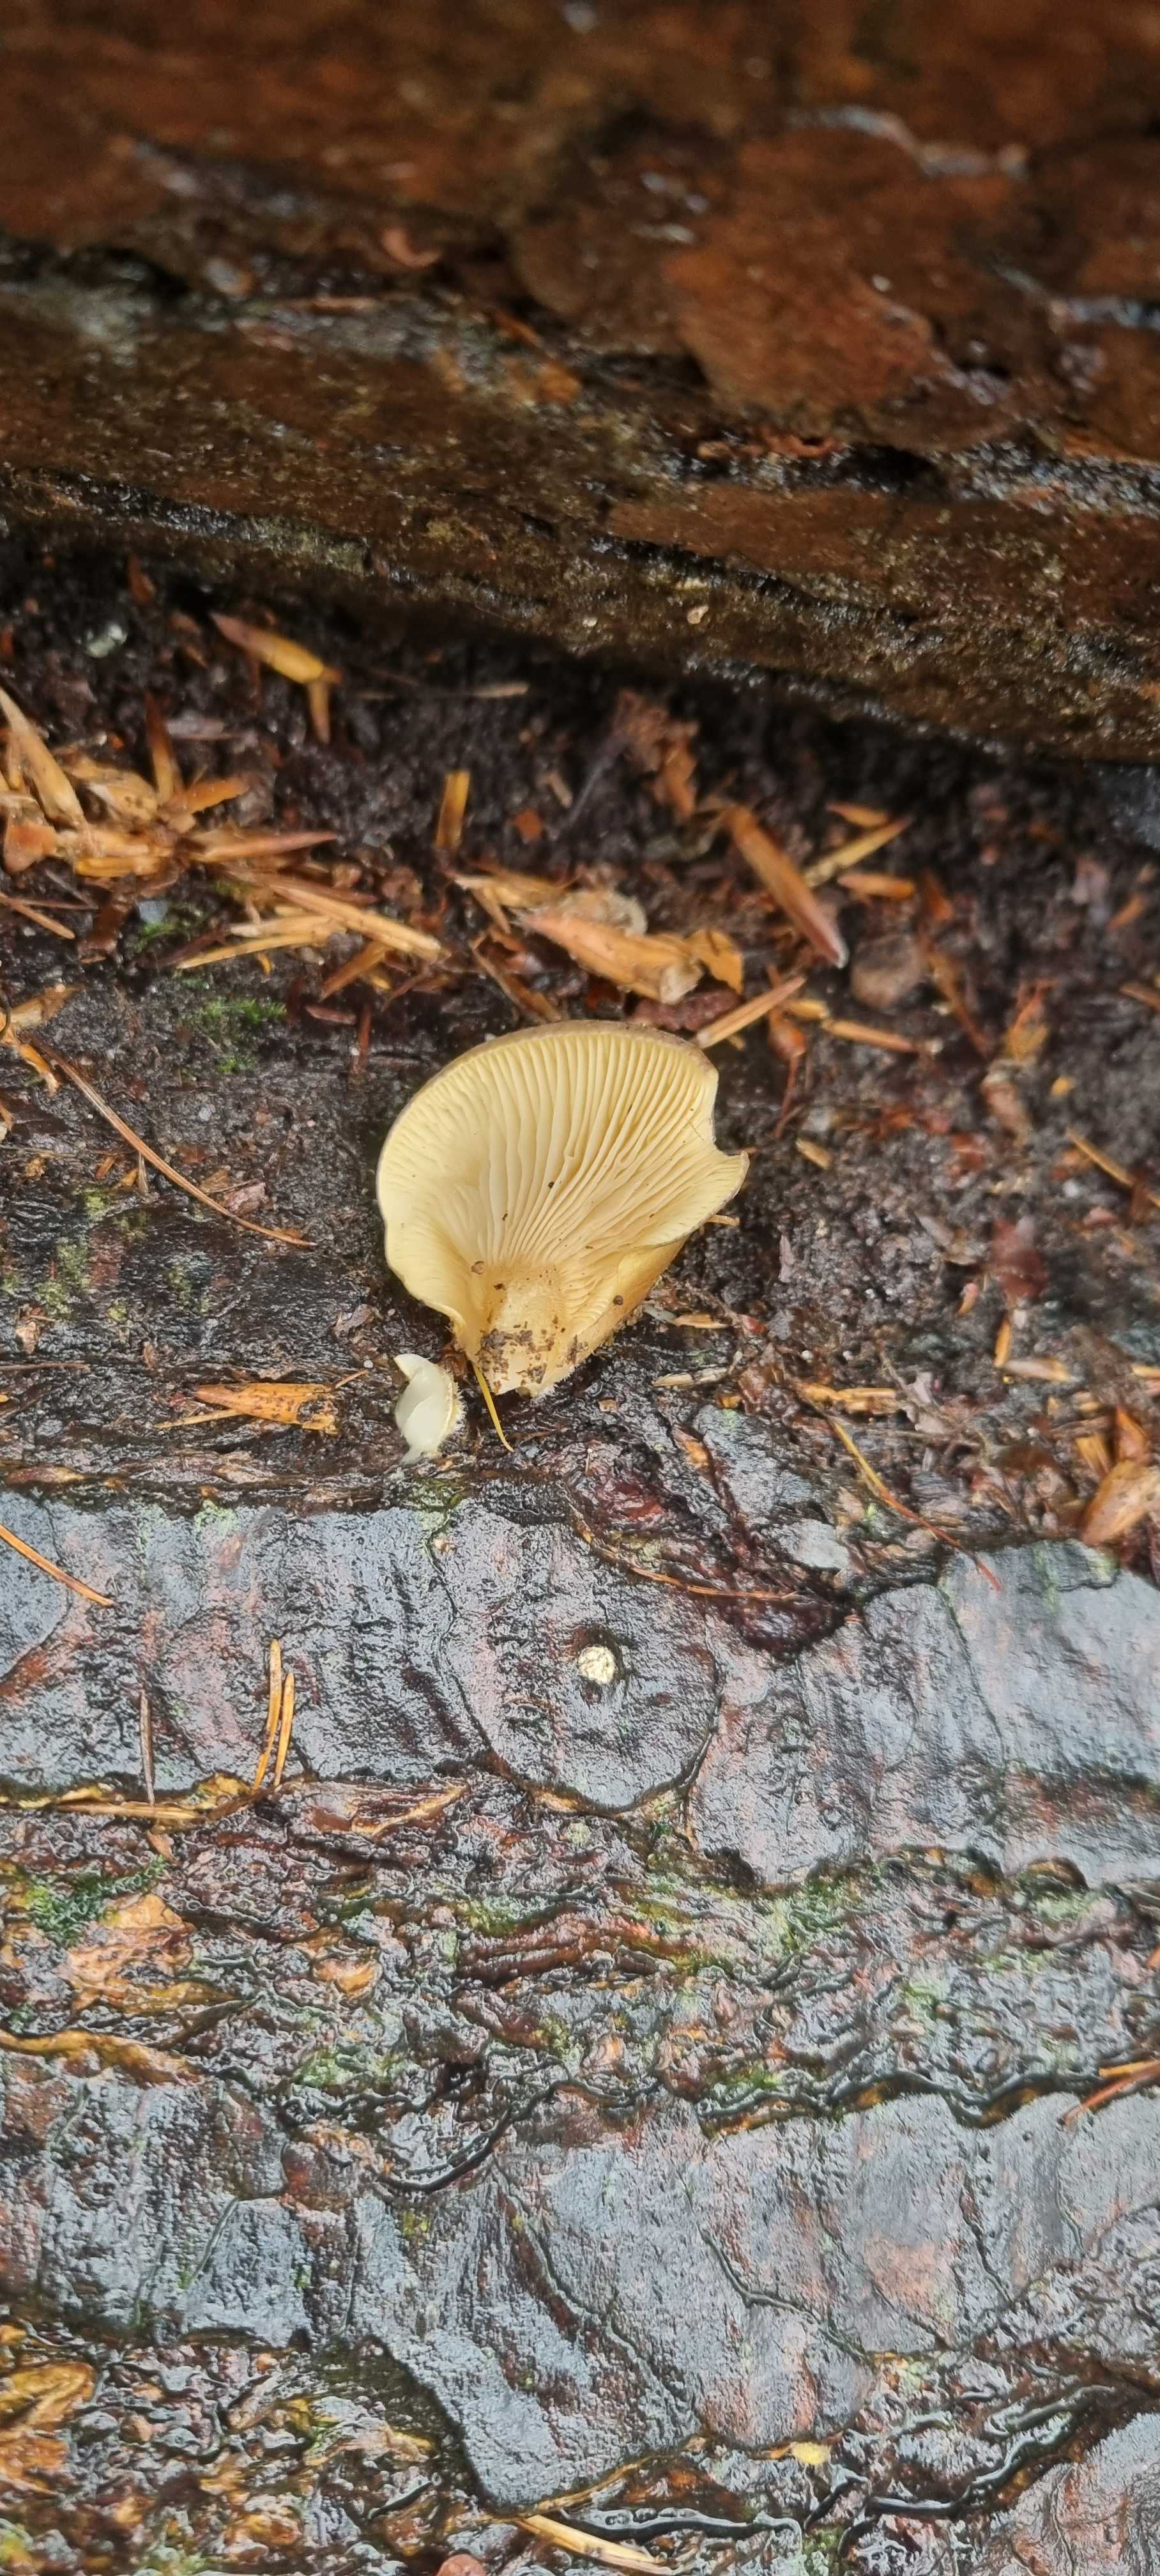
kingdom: Fungi
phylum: Basidiomycota
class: Agaricomycetes
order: Agaricales
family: Sarcomyxaceae
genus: Sarcomyxa
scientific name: Sarcomyxa serotina
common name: gummihat
